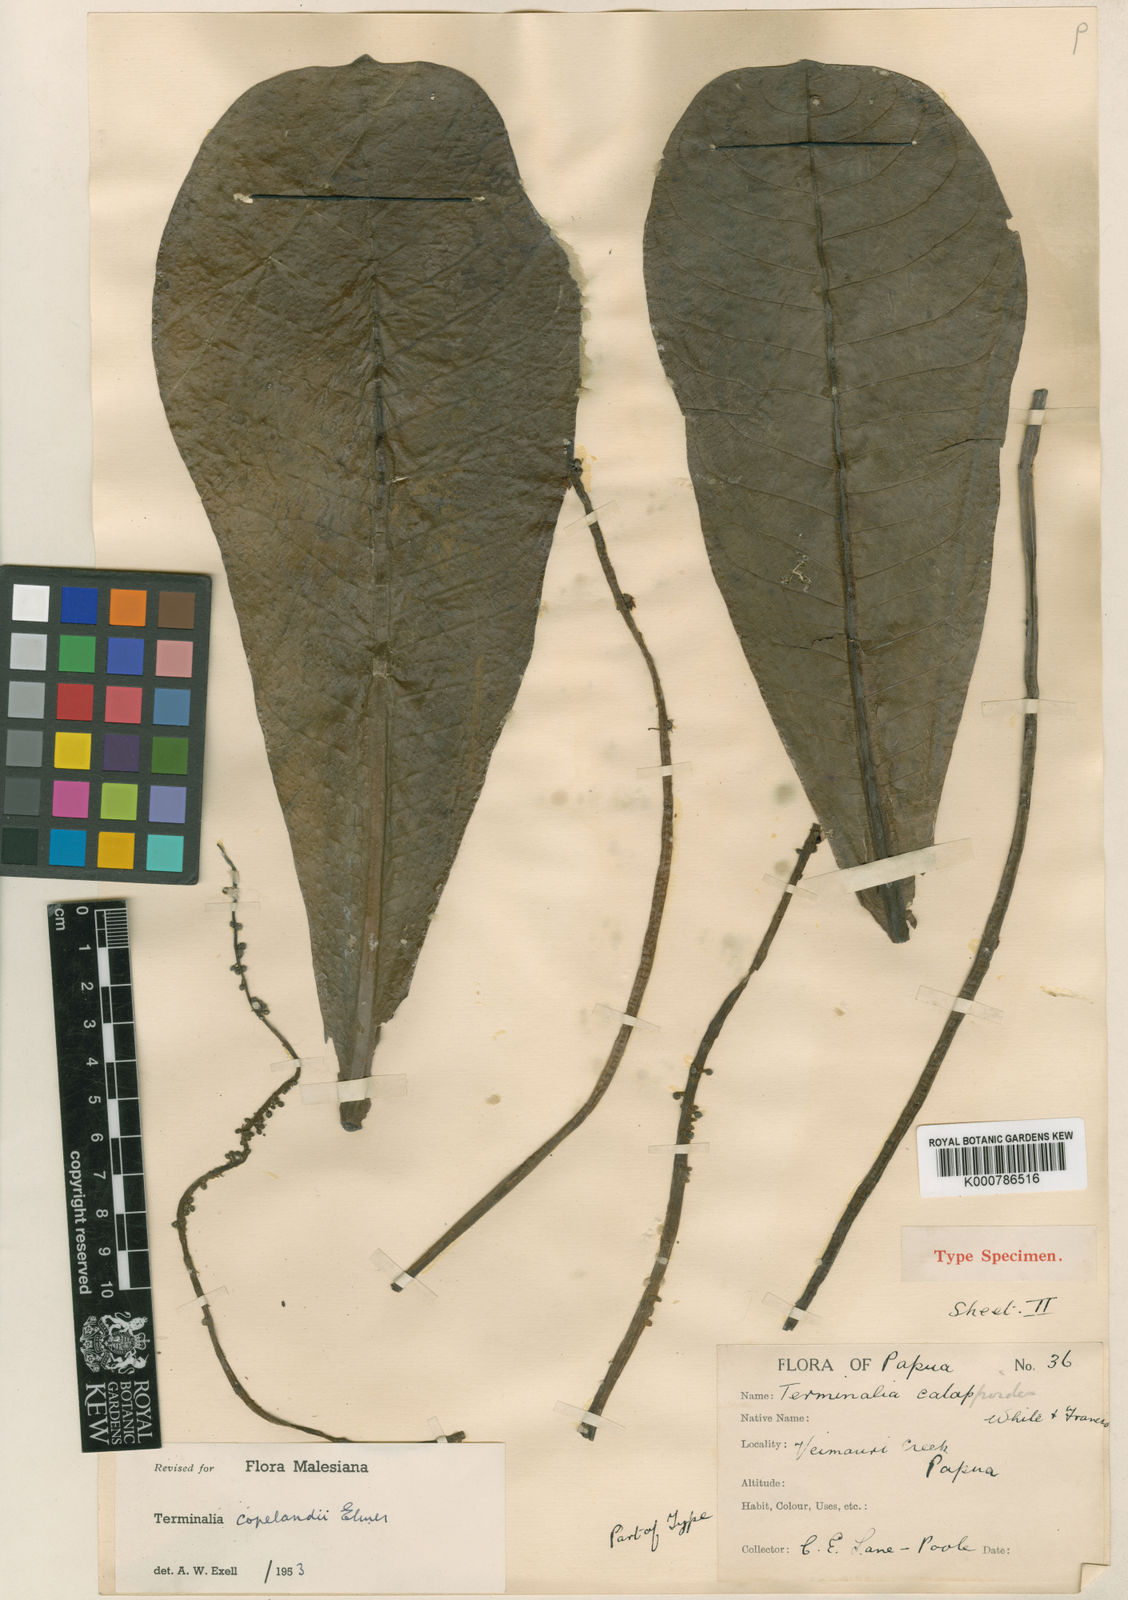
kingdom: Plantae
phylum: Tracheophyta
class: Magnoliopsida
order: Myrtales
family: Combretaceae
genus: Terminalia
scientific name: Terminalia procera
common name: White bombway
